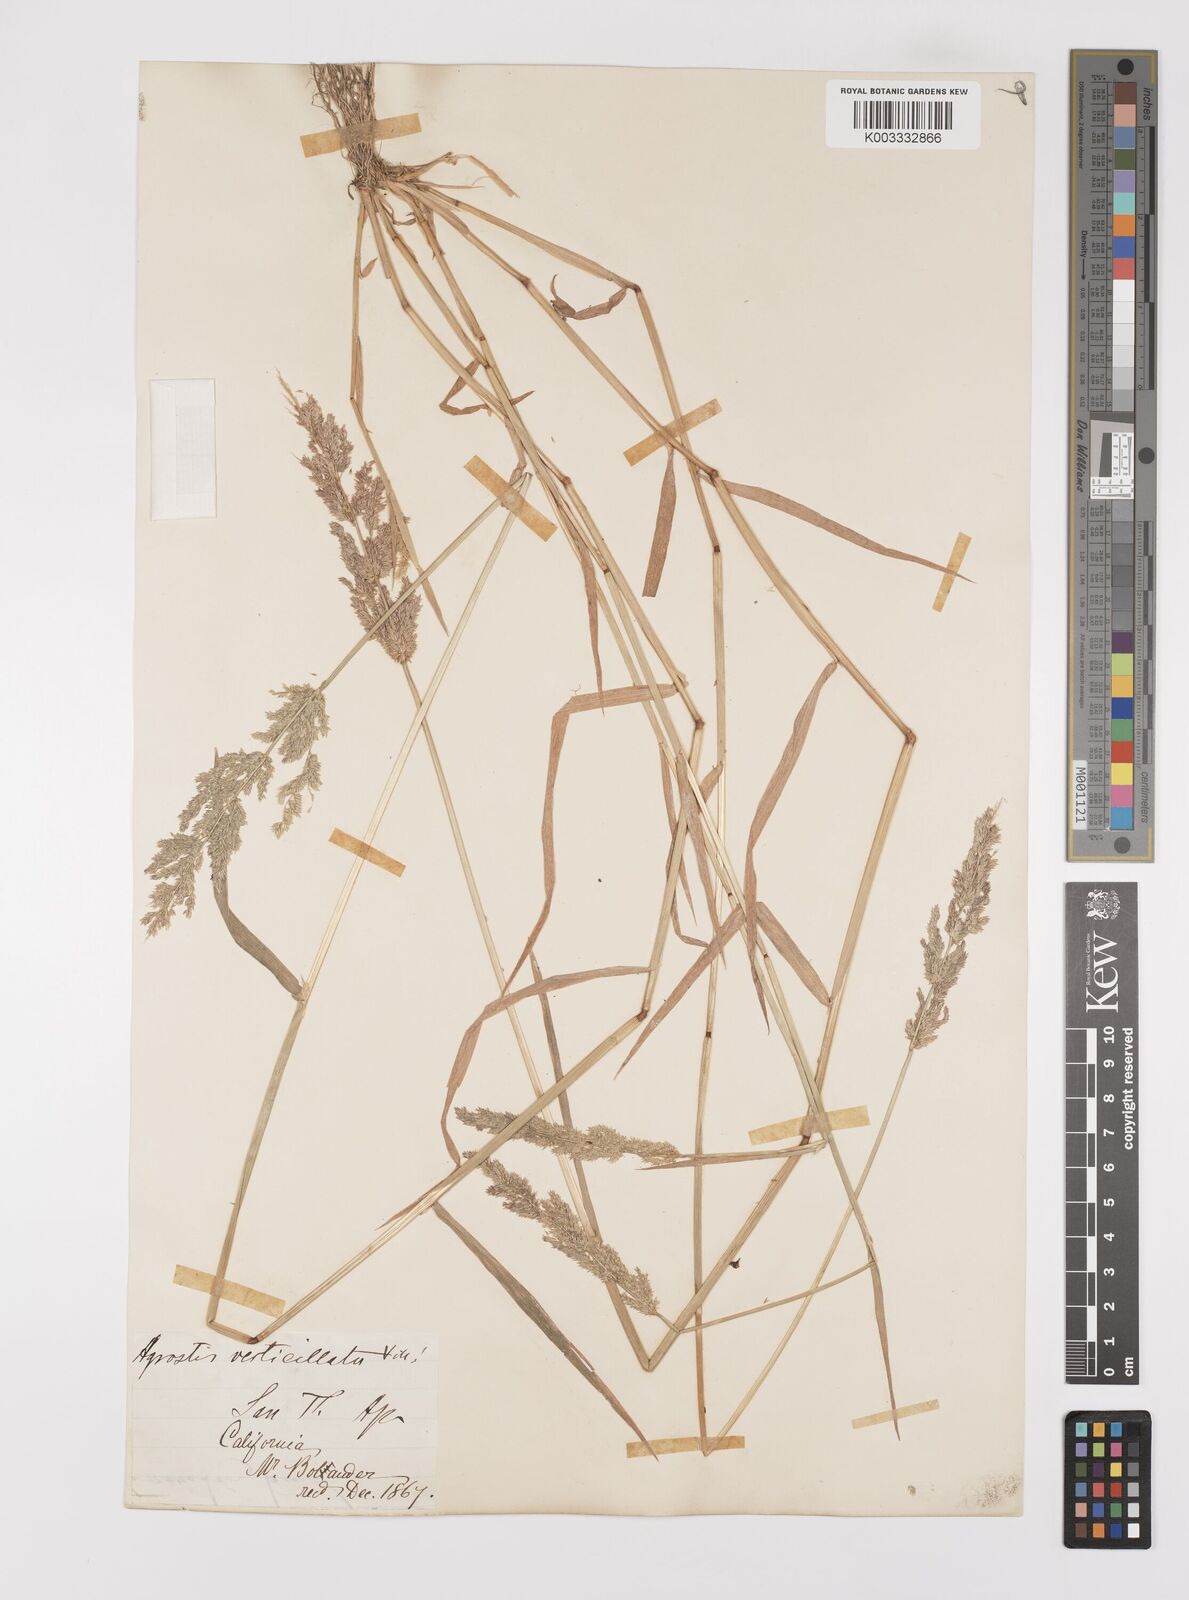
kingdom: Plantae
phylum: Tracheophyta
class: Liliopsida
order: Poales
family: Poaceae
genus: Polypogon
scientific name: Polypogon viridis
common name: Water bent
